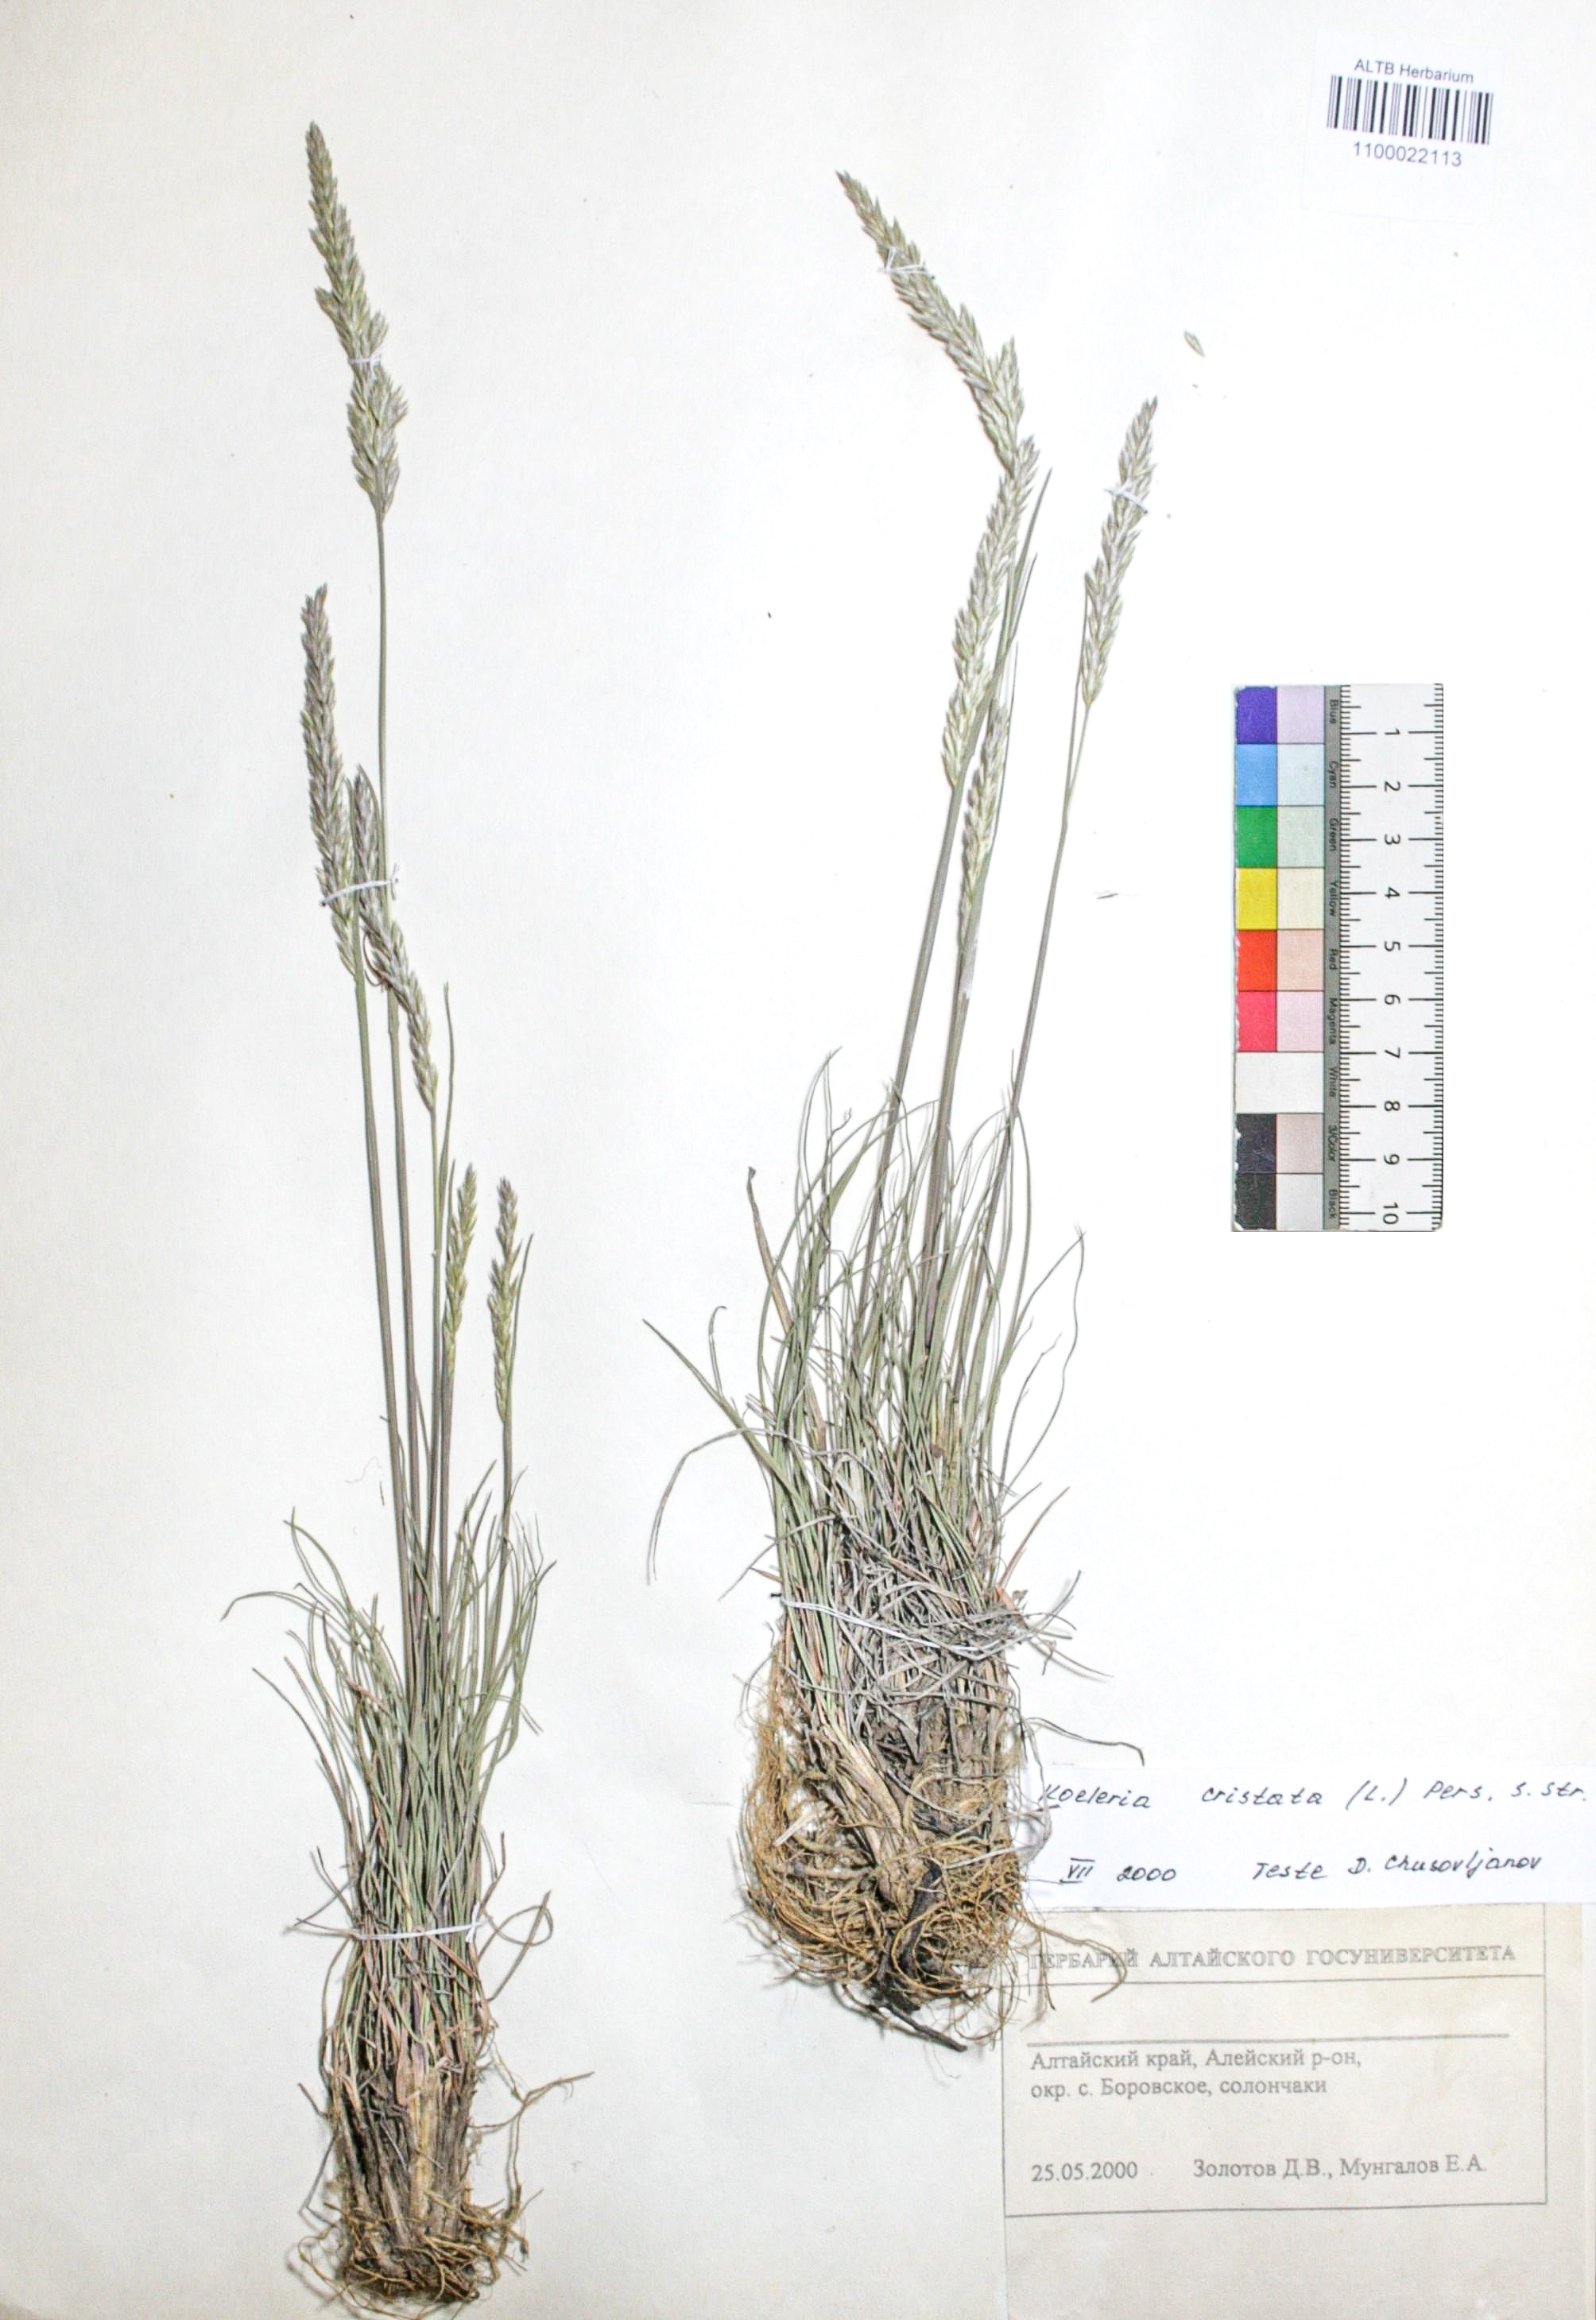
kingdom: Plantae
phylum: Tracheophyta
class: Liliopsida
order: Poales
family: Poaceae
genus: Koeleria
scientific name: Koeleria pyramidata
